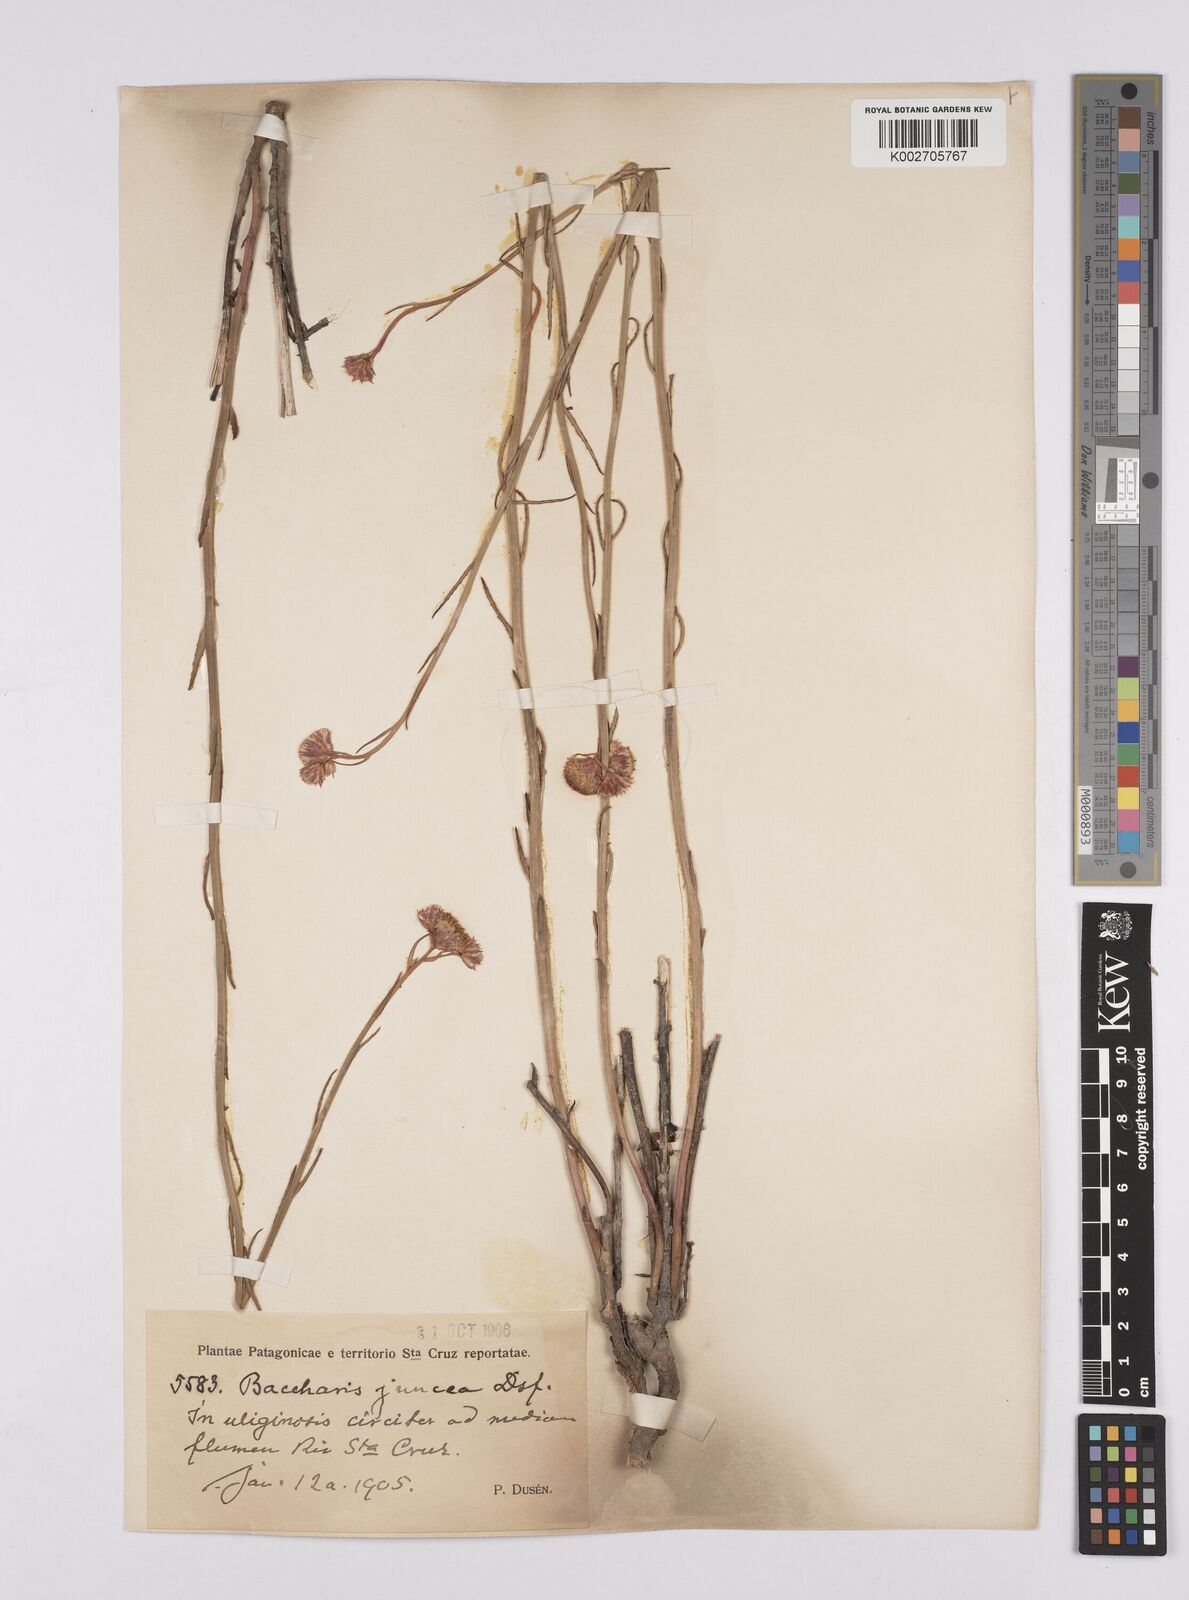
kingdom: Plantae
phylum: Tracheophyta
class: Magnoliopsida
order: Asterales
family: Asteraceae
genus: Baccharis
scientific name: Baccharis juncea
